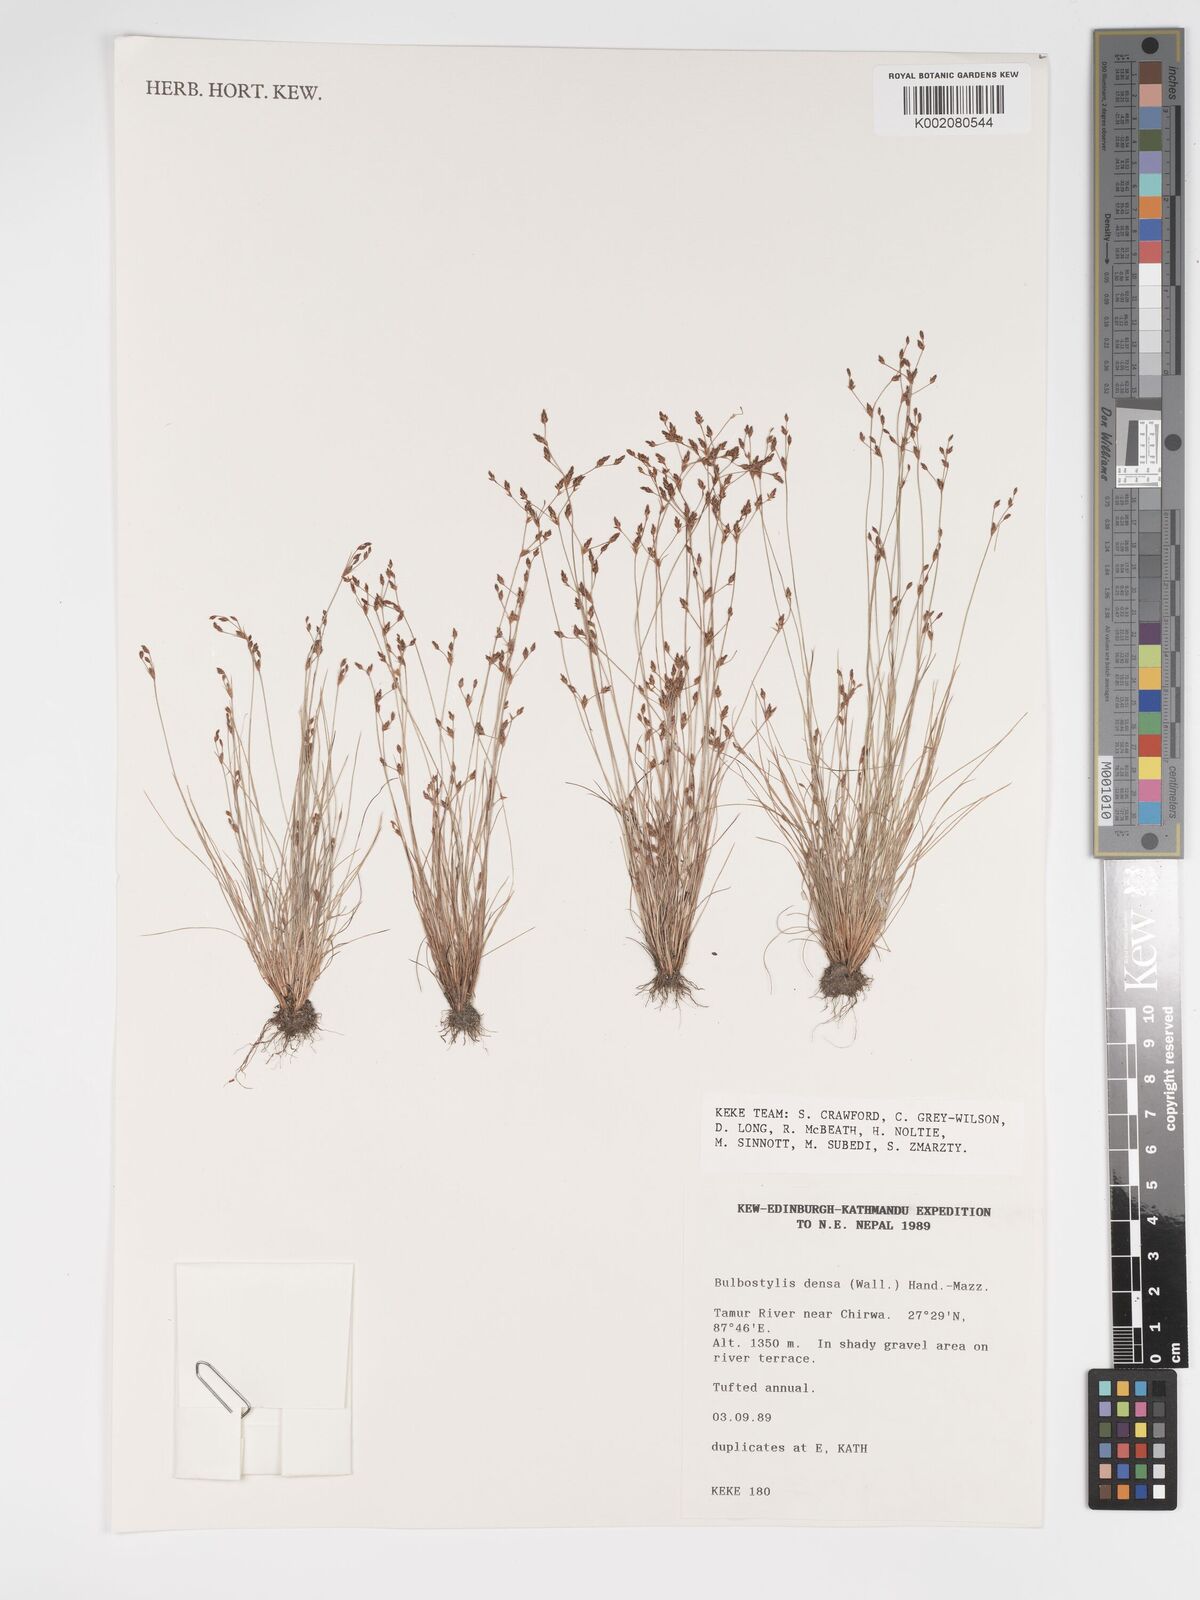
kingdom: Plantae
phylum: Tracheophyta
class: Liliopsida
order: Poales
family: Cyperaceae
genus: Bulbostylis
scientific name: Bulbostylis densa
